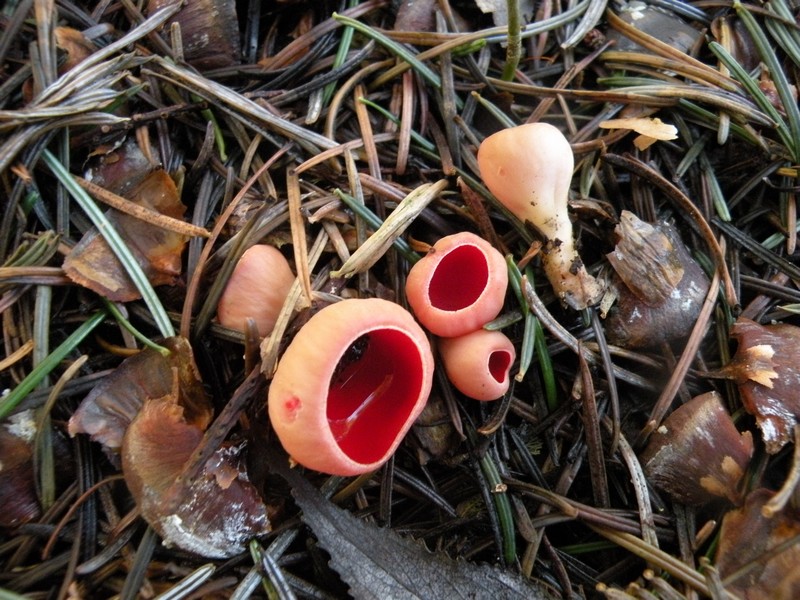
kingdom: Fungi
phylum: Ascomycota
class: Pezizomycetes
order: Pezizales
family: Sarcoscyphaceae
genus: Sarcoscypha
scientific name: Sarcoscypha austriaca
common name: krølhåret pragtbæger
